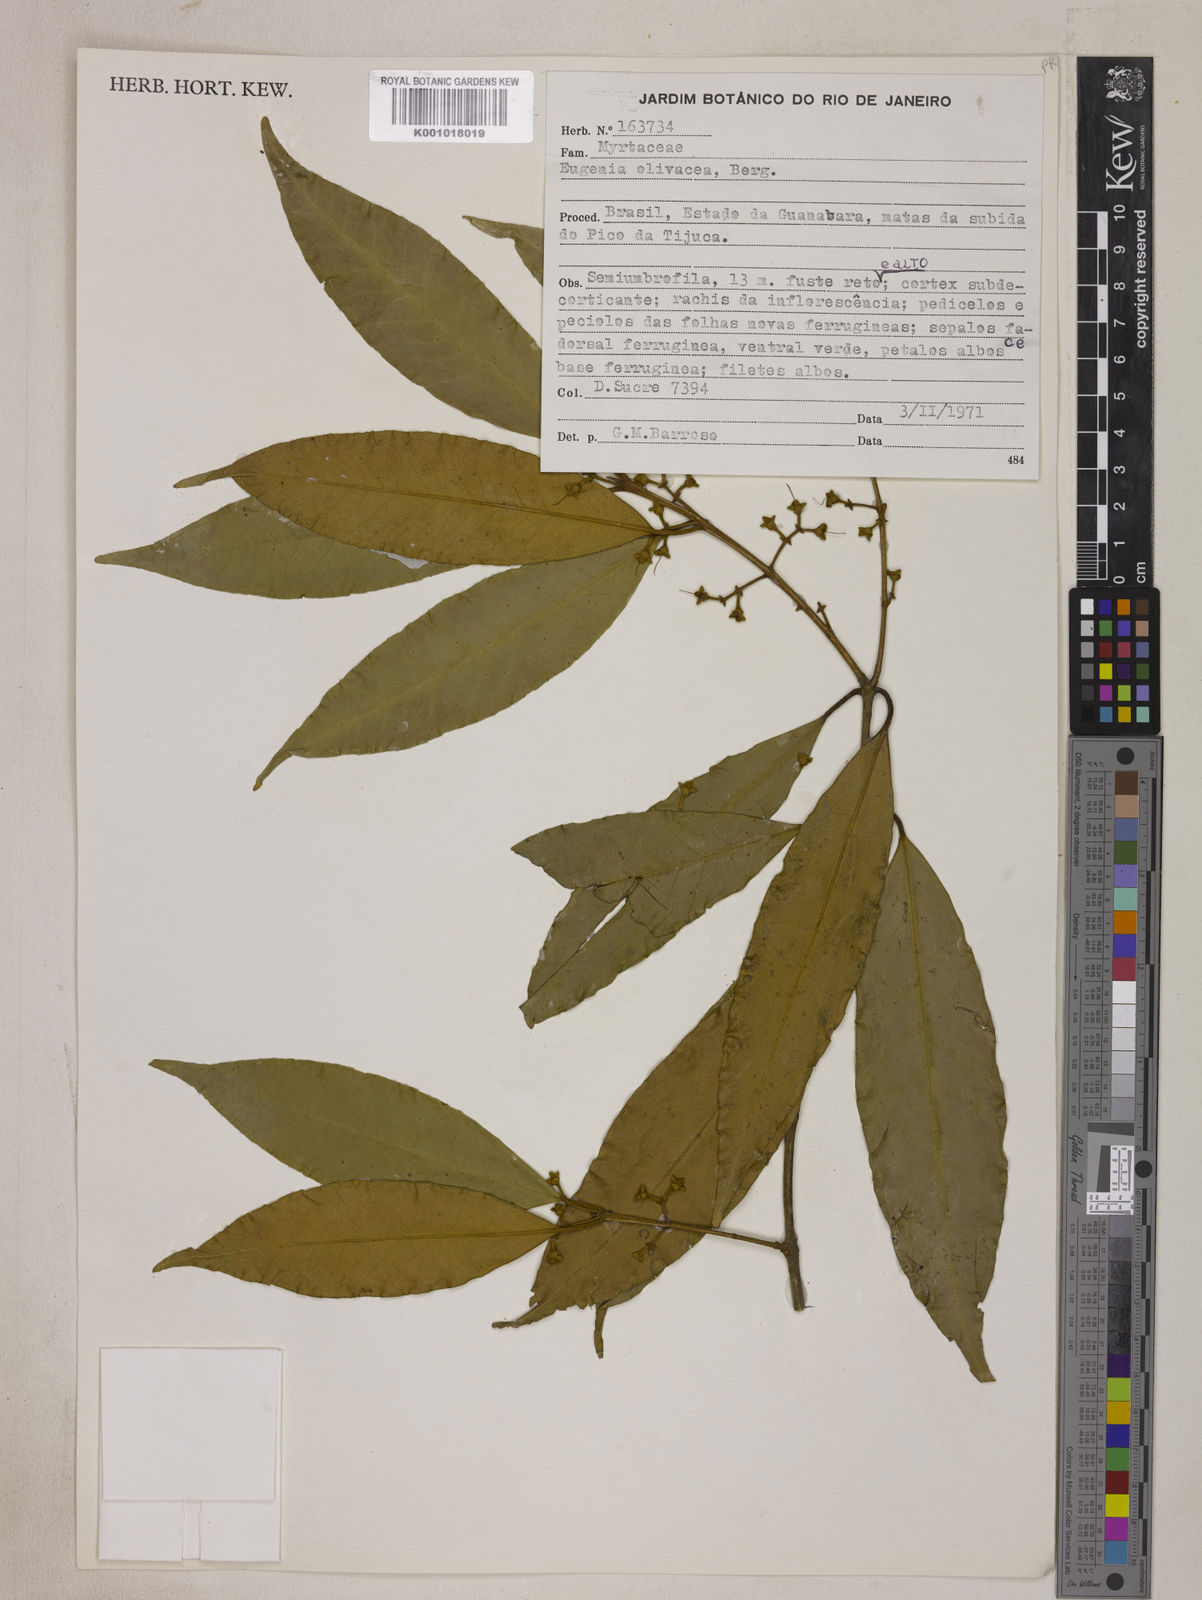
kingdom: Plantae
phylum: Tracheophyta
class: Magnoliopsida
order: Myrtales
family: Myrtaceae
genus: Eugenia
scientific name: Eugenia oblongata
